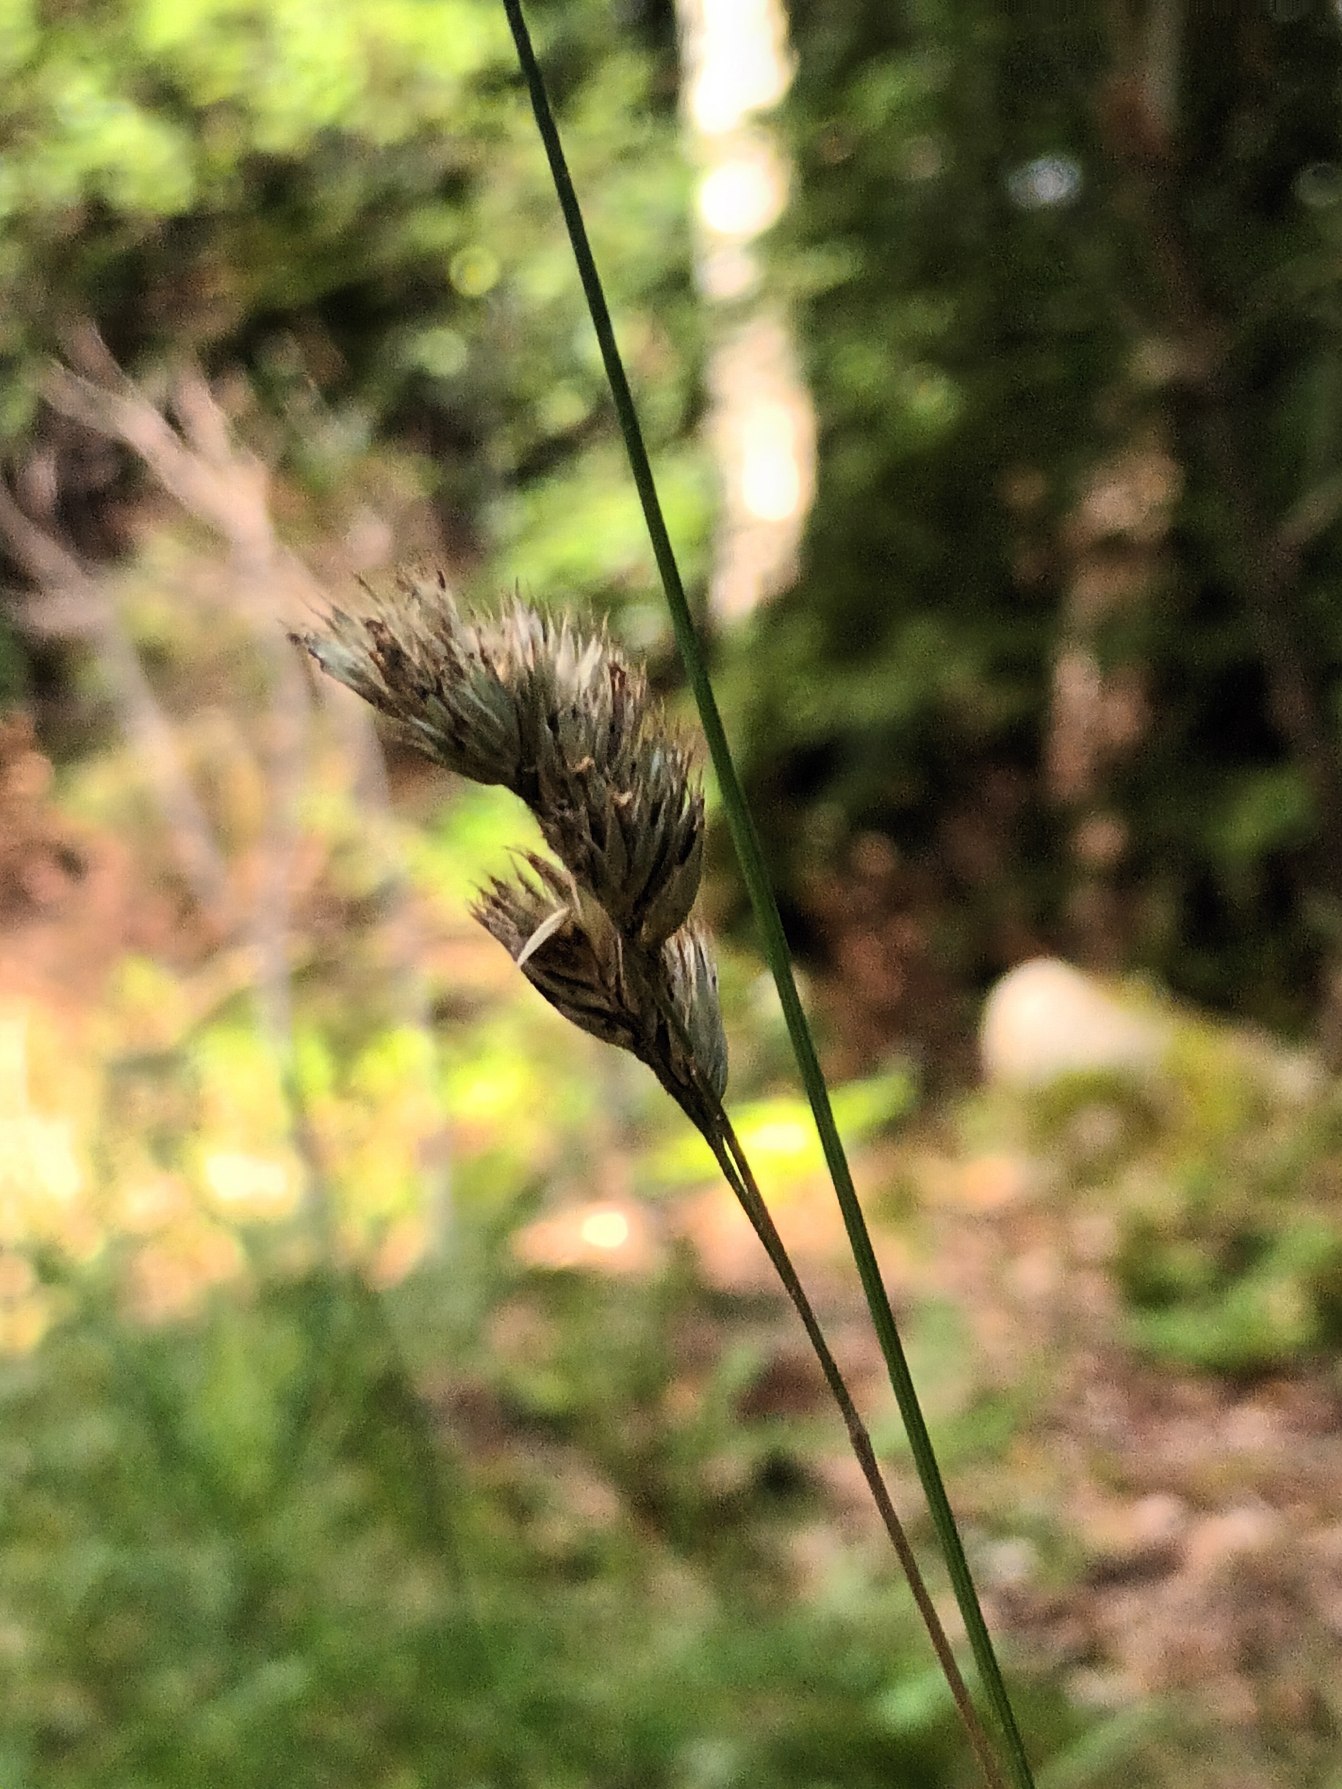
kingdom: Plantae
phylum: Tracheophyta
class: Liliopsida
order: Poales
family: Poaceae
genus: Dactylis
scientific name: Dactylis glomerata
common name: Almindelig hundegræs
